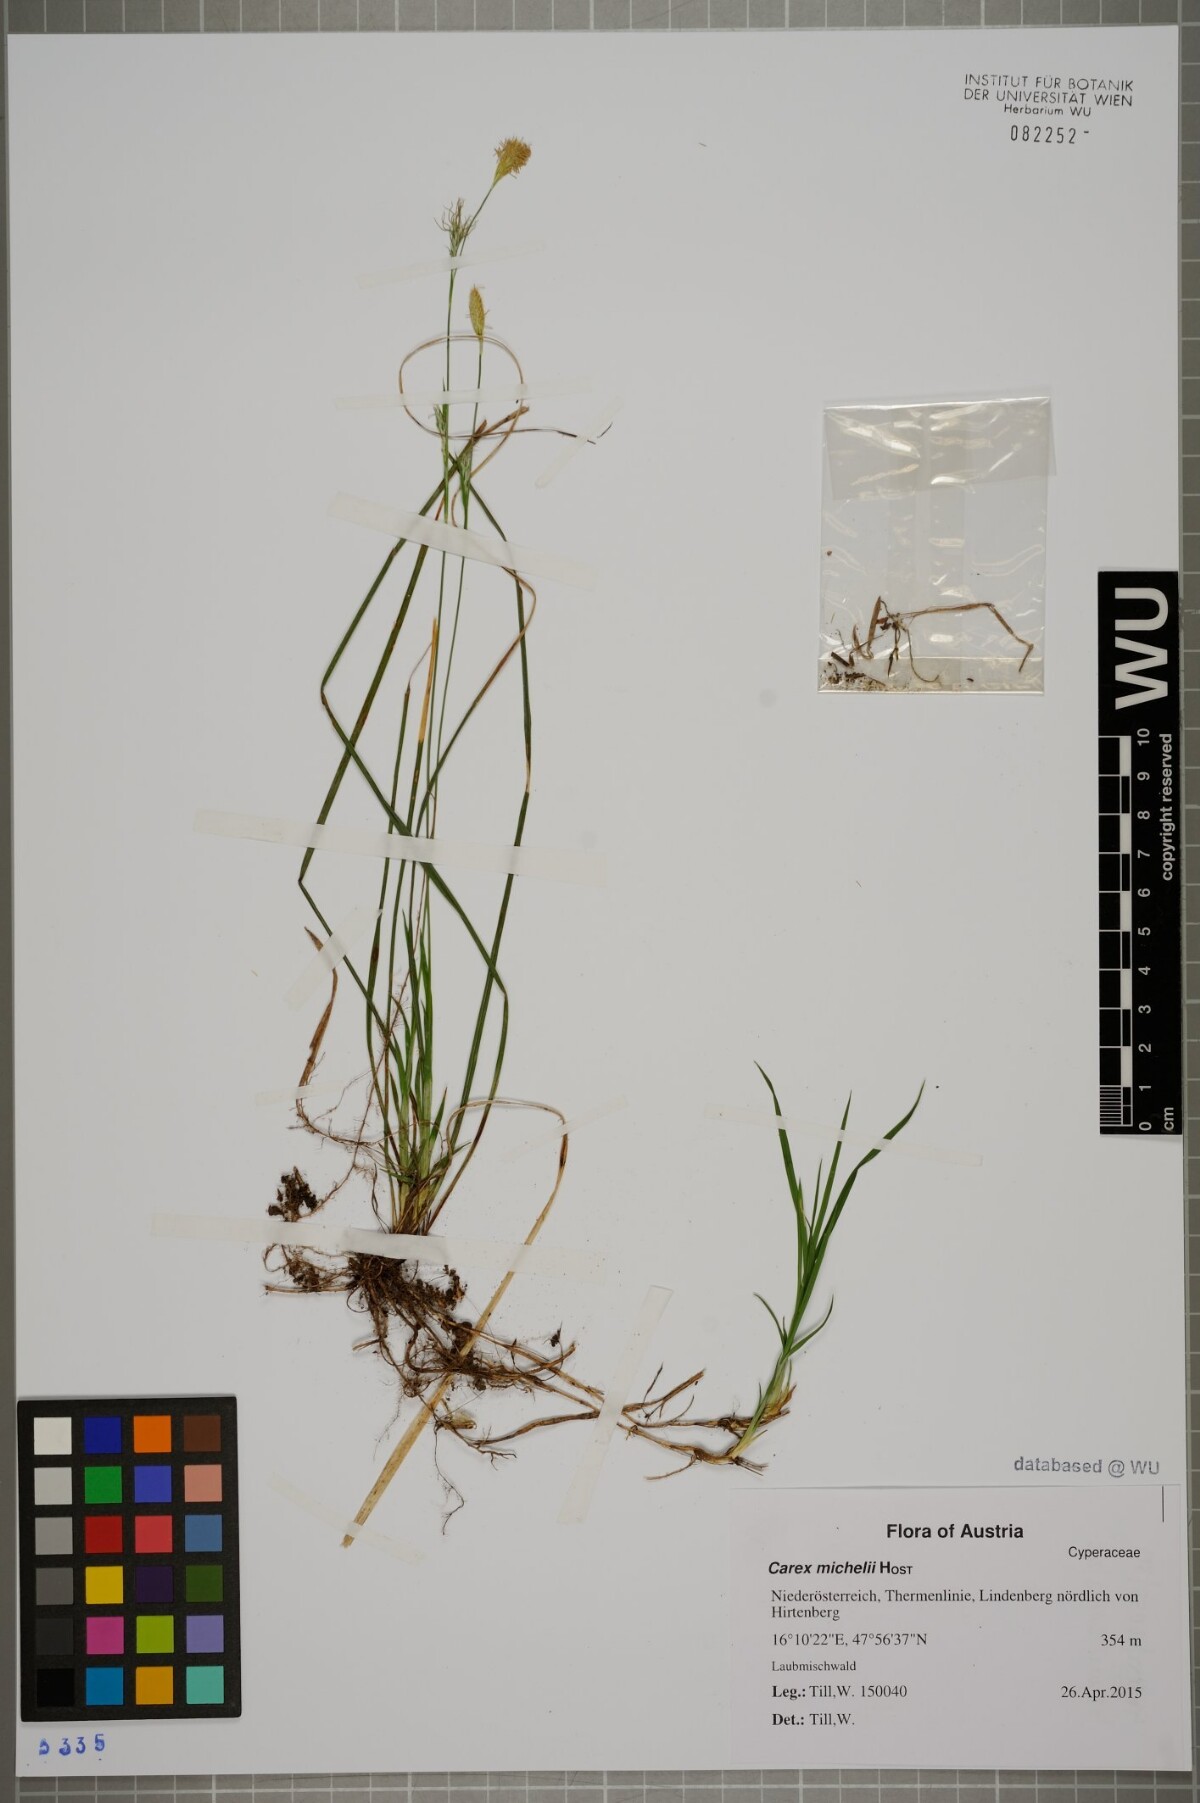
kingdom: Plantae
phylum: Tracheophyta
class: Liliopsida
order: Poales
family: Cyperaceae
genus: Carex
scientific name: Carex michelii
